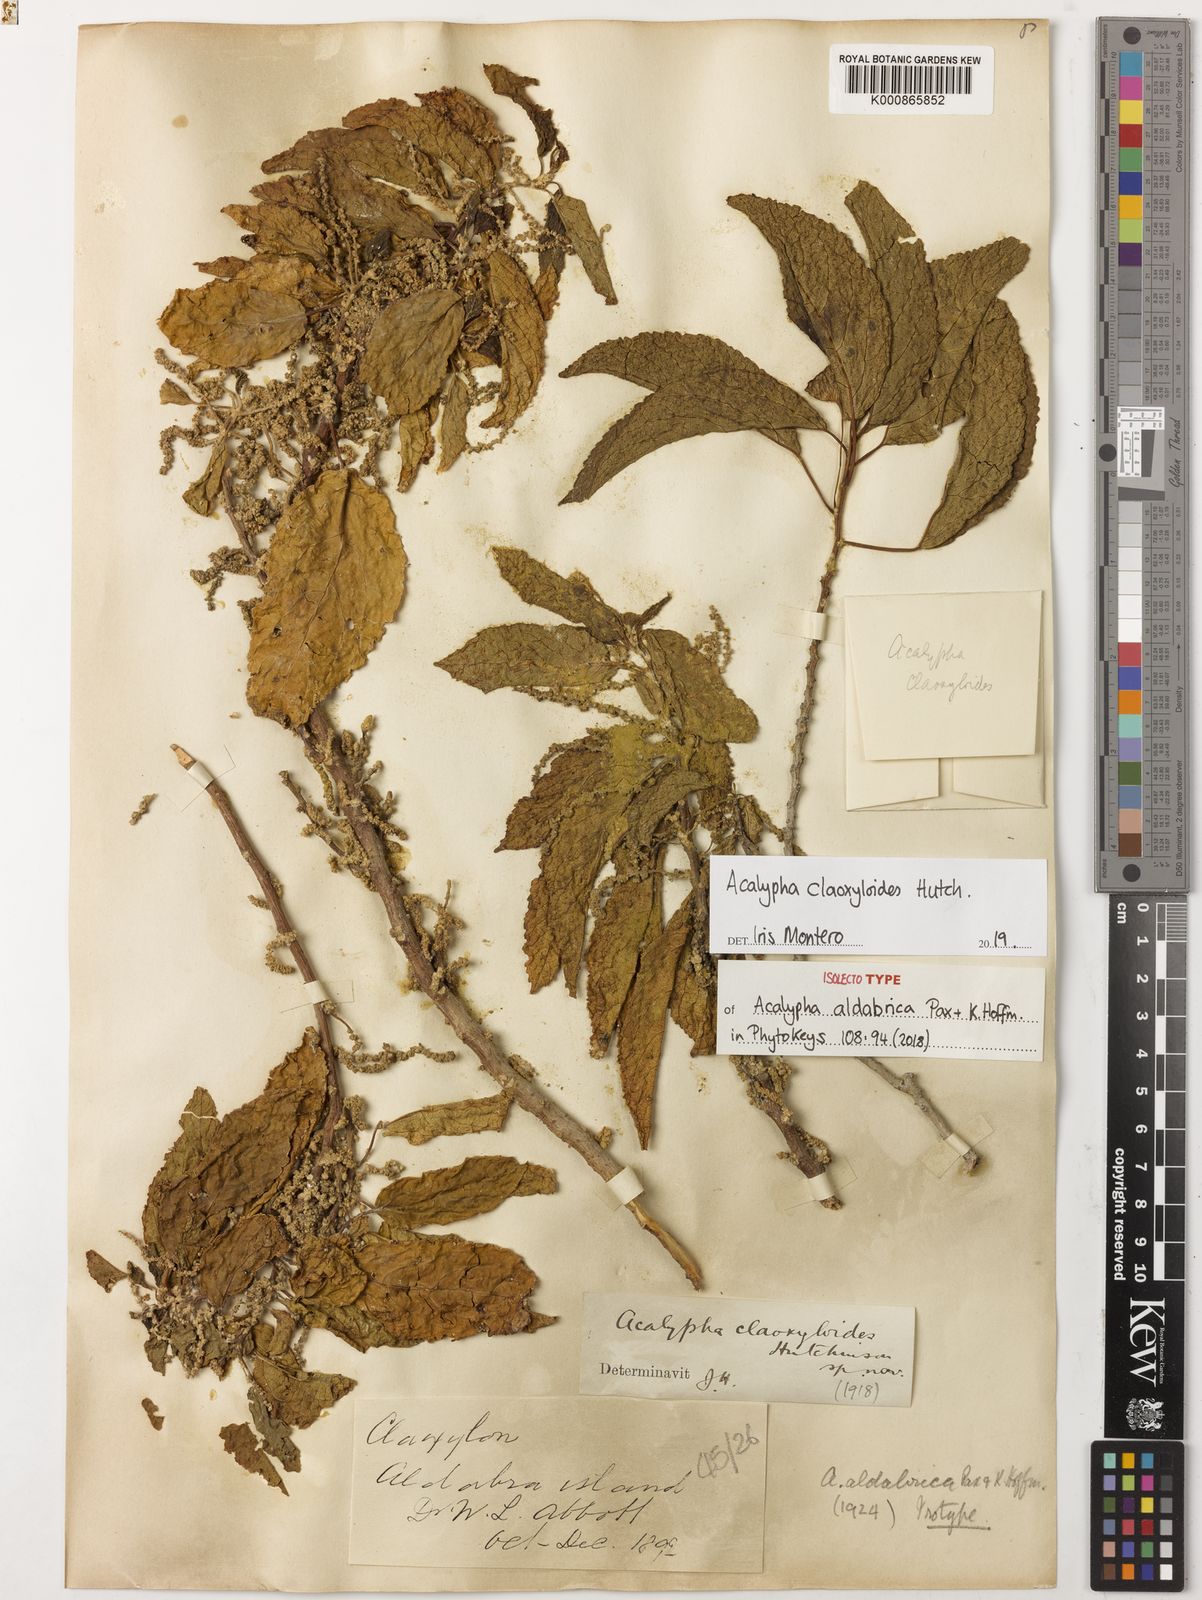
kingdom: Plantae
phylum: Tracheophyta
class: Magnoliopsida
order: Malpighiales
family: Euphorbiaceae
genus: Acalypha
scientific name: Acalypha claoxyloides
